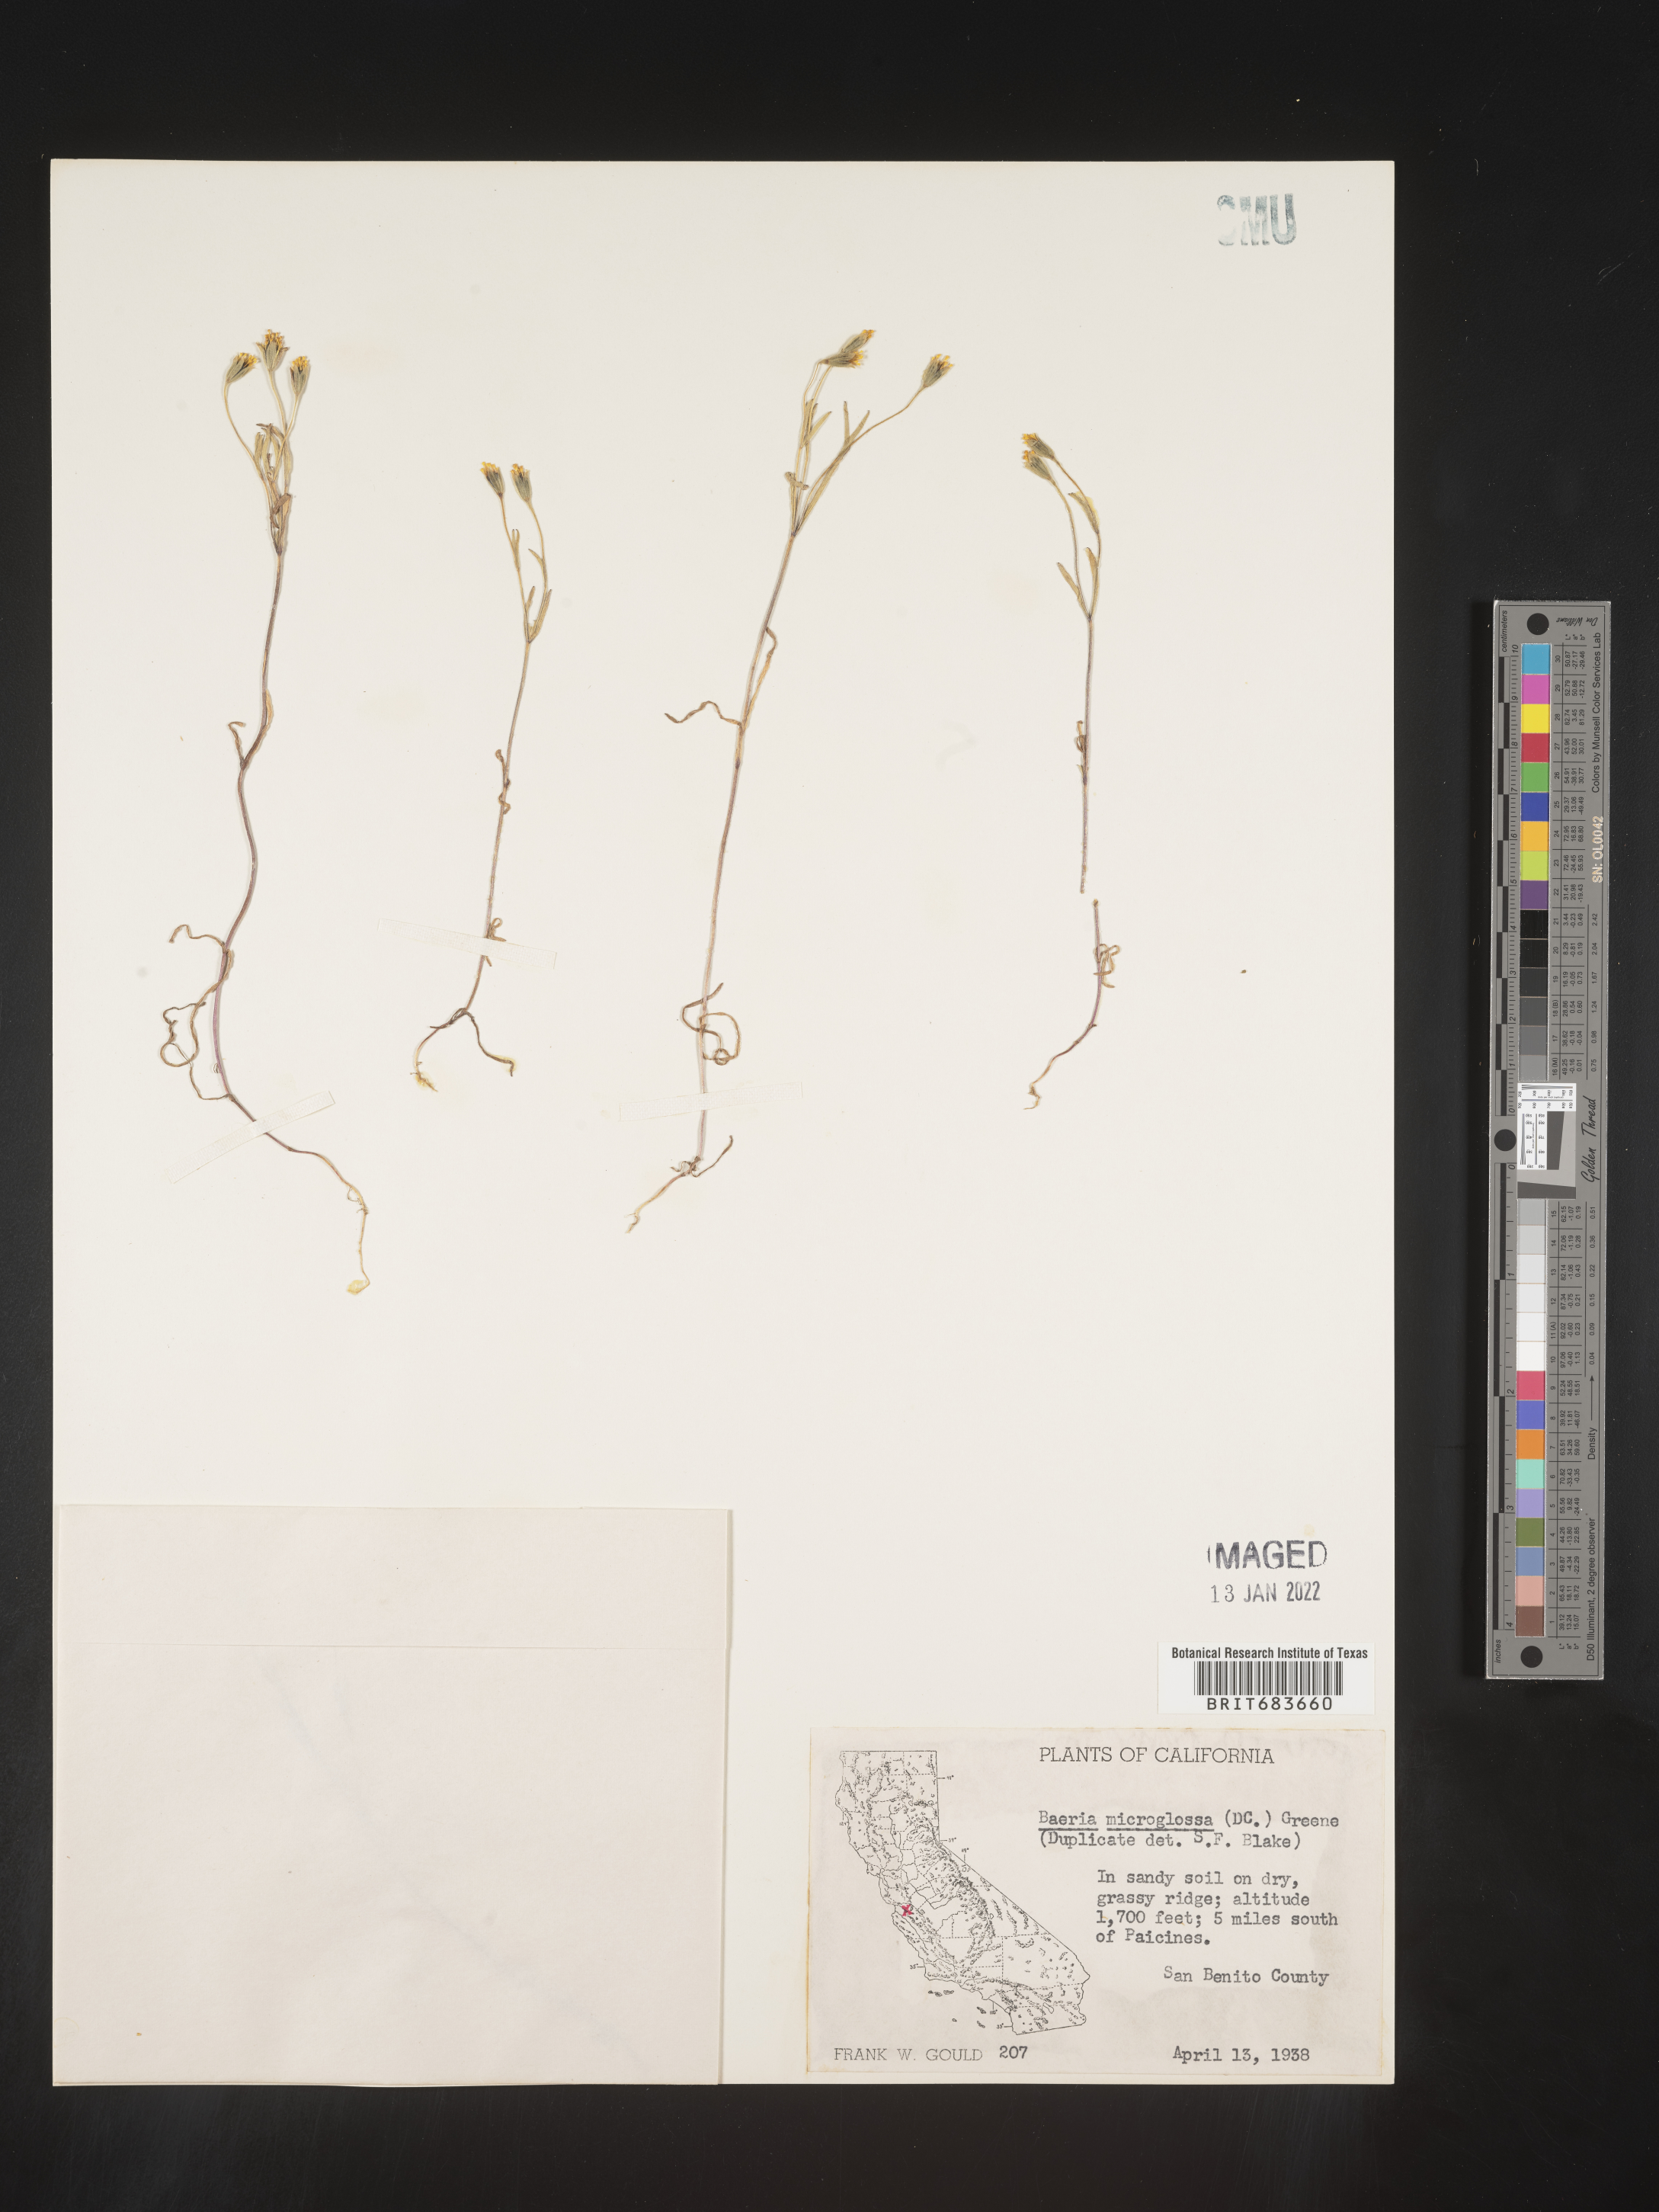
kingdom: Plantae
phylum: Tracheophyta
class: Magnoliopsida
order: Asterales
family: Asteraceae
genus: Lasthenia
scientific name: Lasthenia
